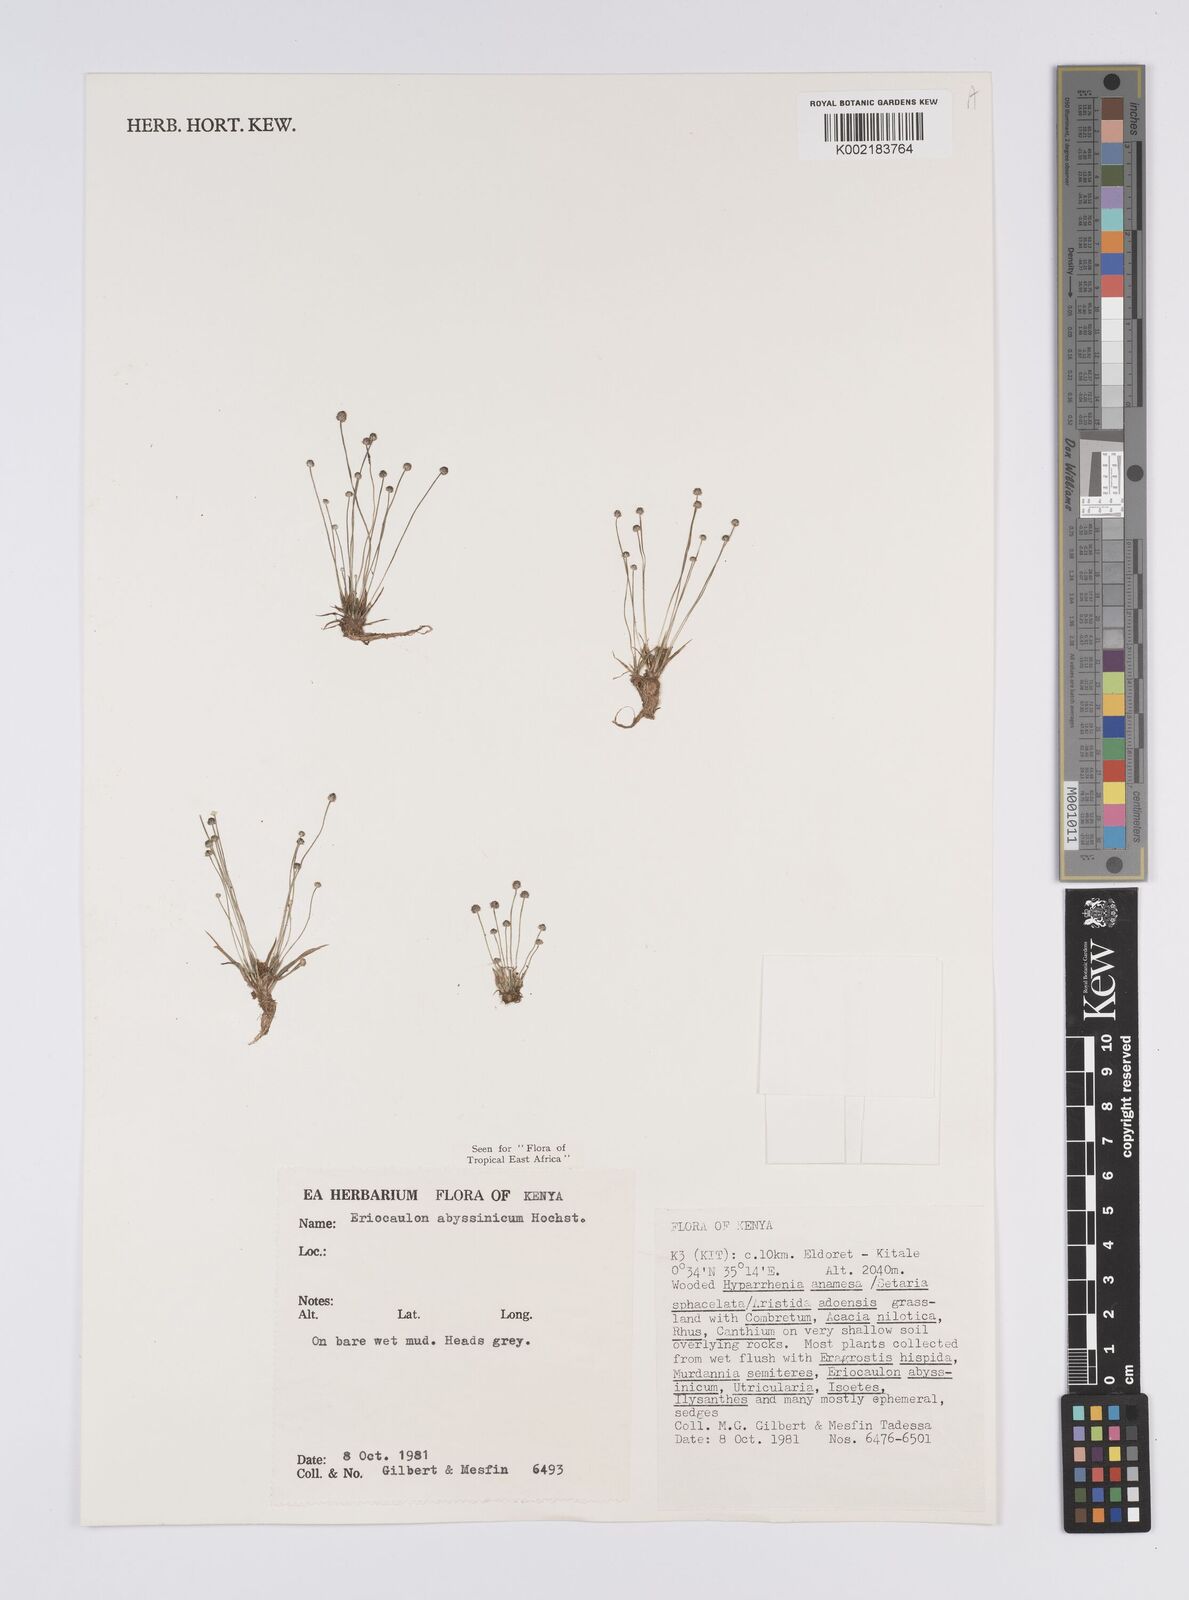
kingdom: Plantae
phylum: Tracheophyta
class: Liliopsida
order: Poales
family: Eriocaulaceae
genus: Eriocaulon
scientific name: Eriocaulon abyssinicum
